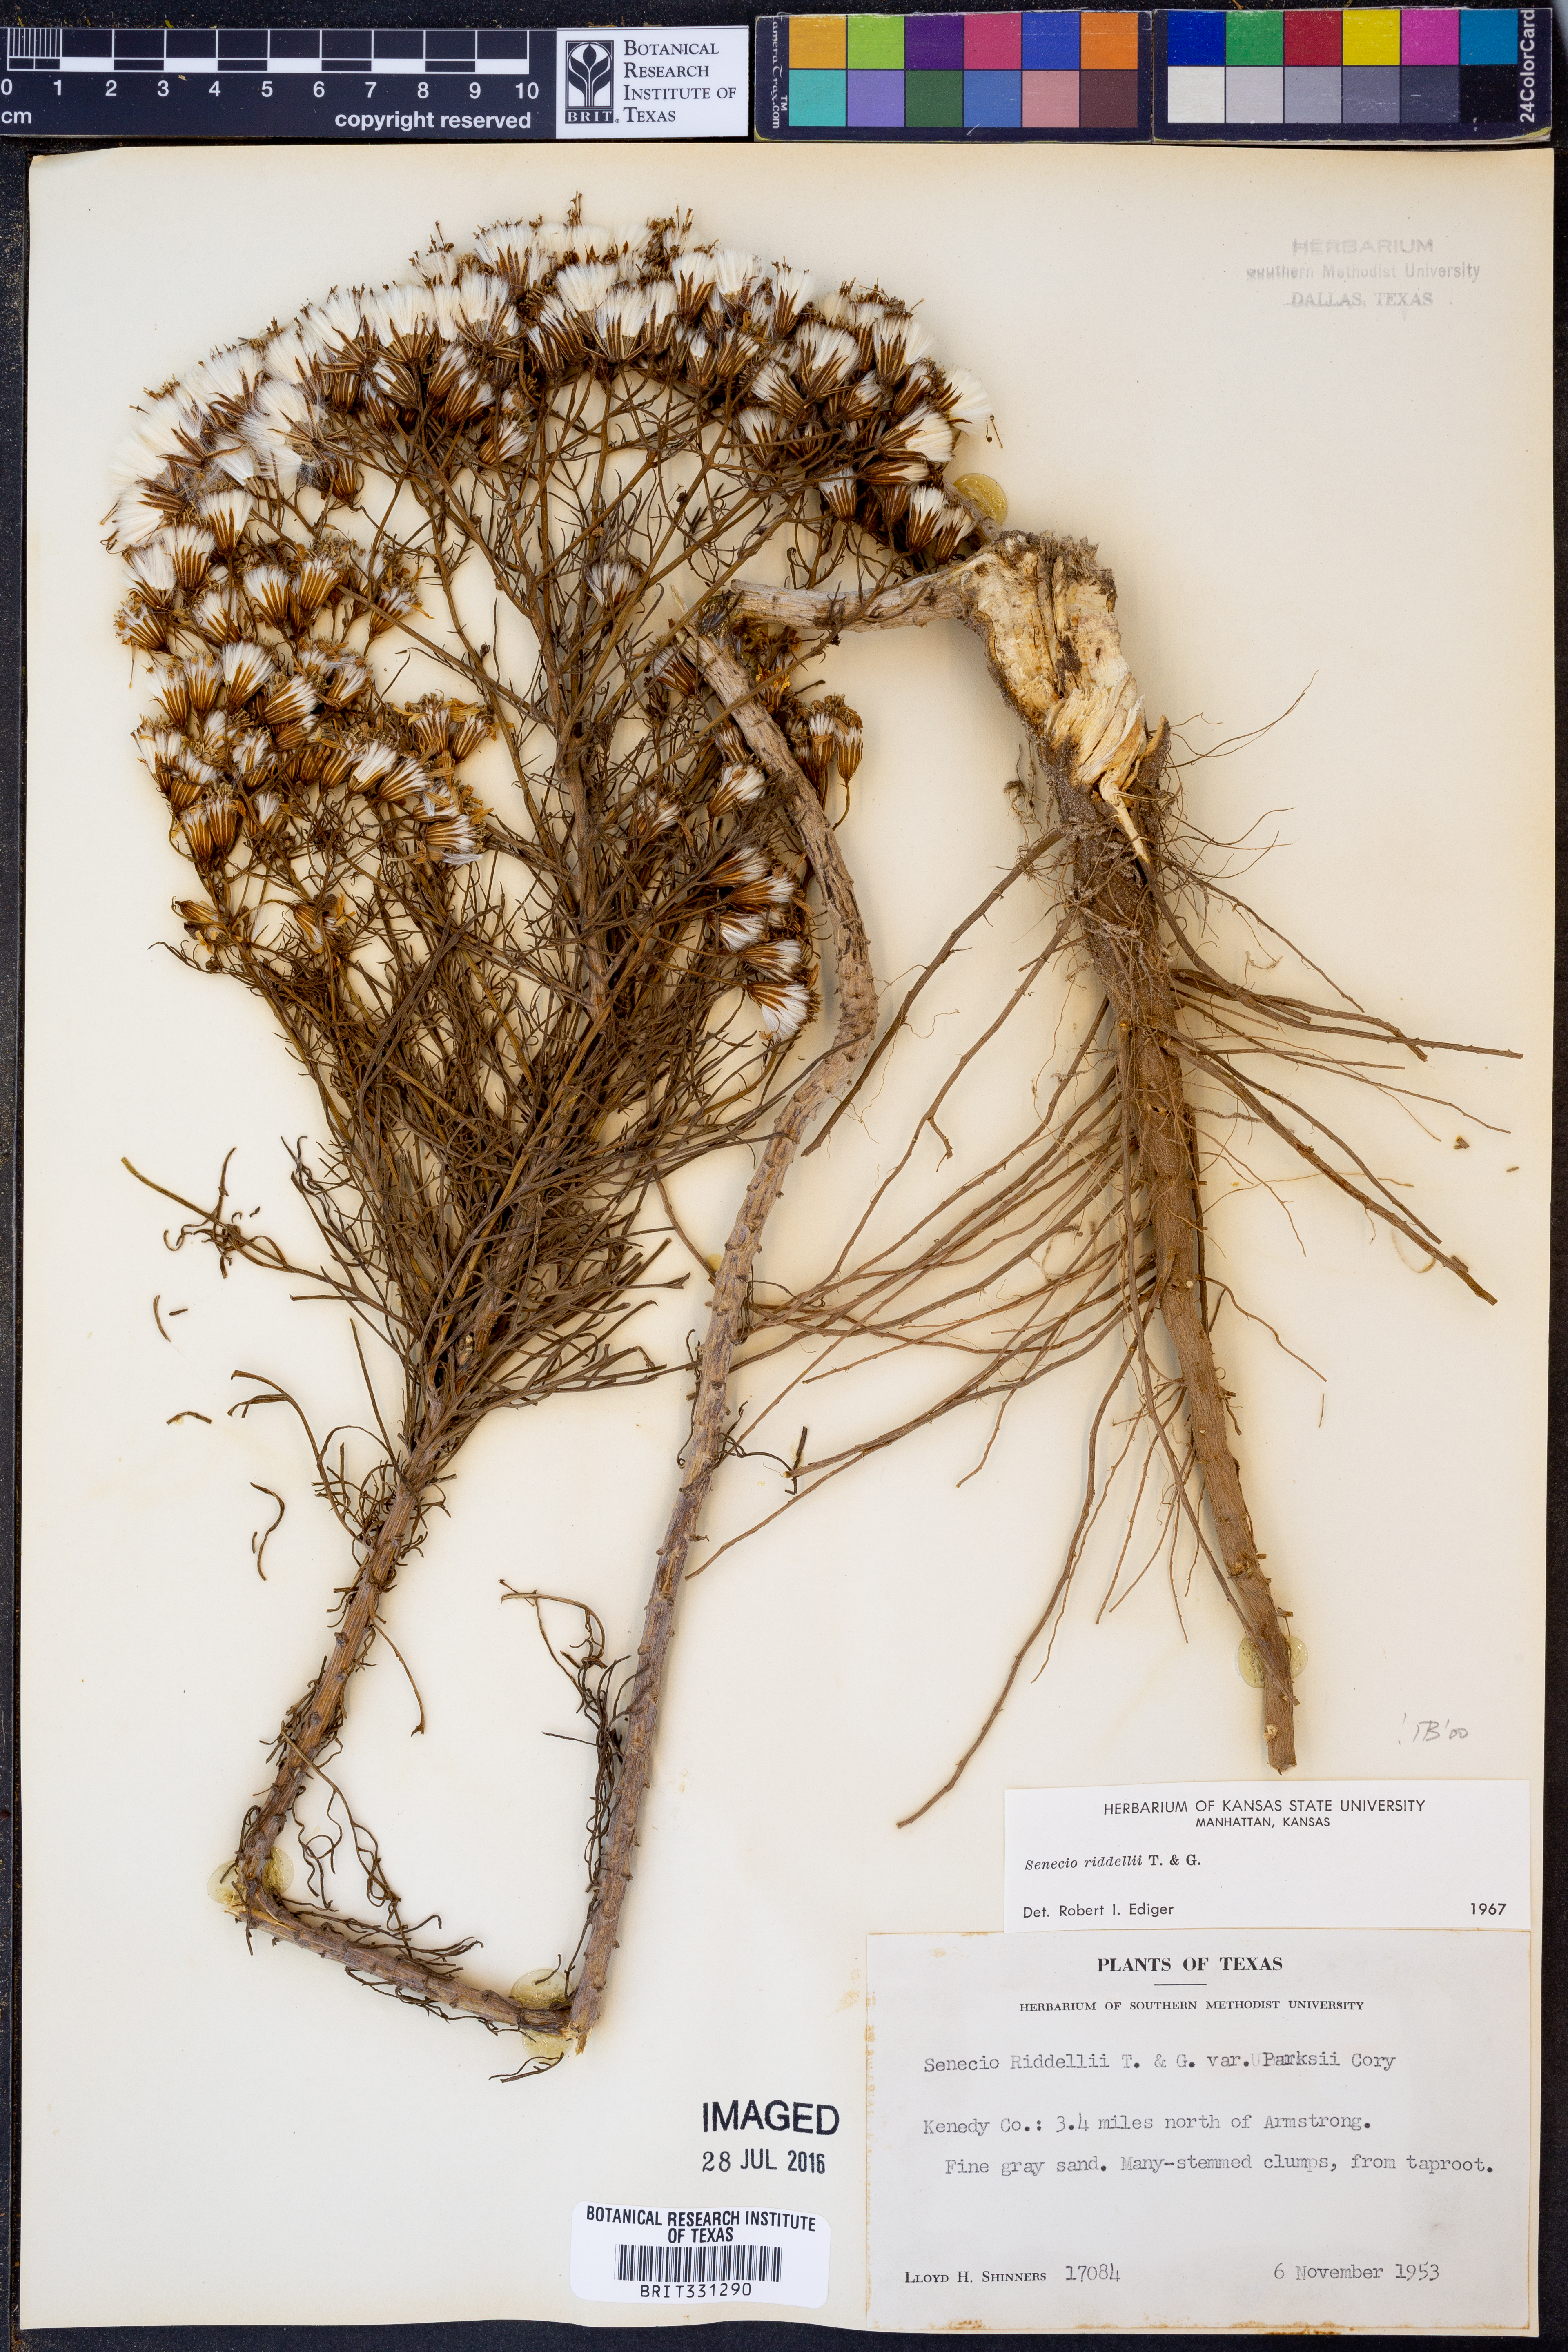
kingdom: Plantae
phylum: Tracheophyta
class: Magnoliopsida
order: Asterales
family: Asteraceae
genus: Senecio
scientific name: Senecio riddellii
